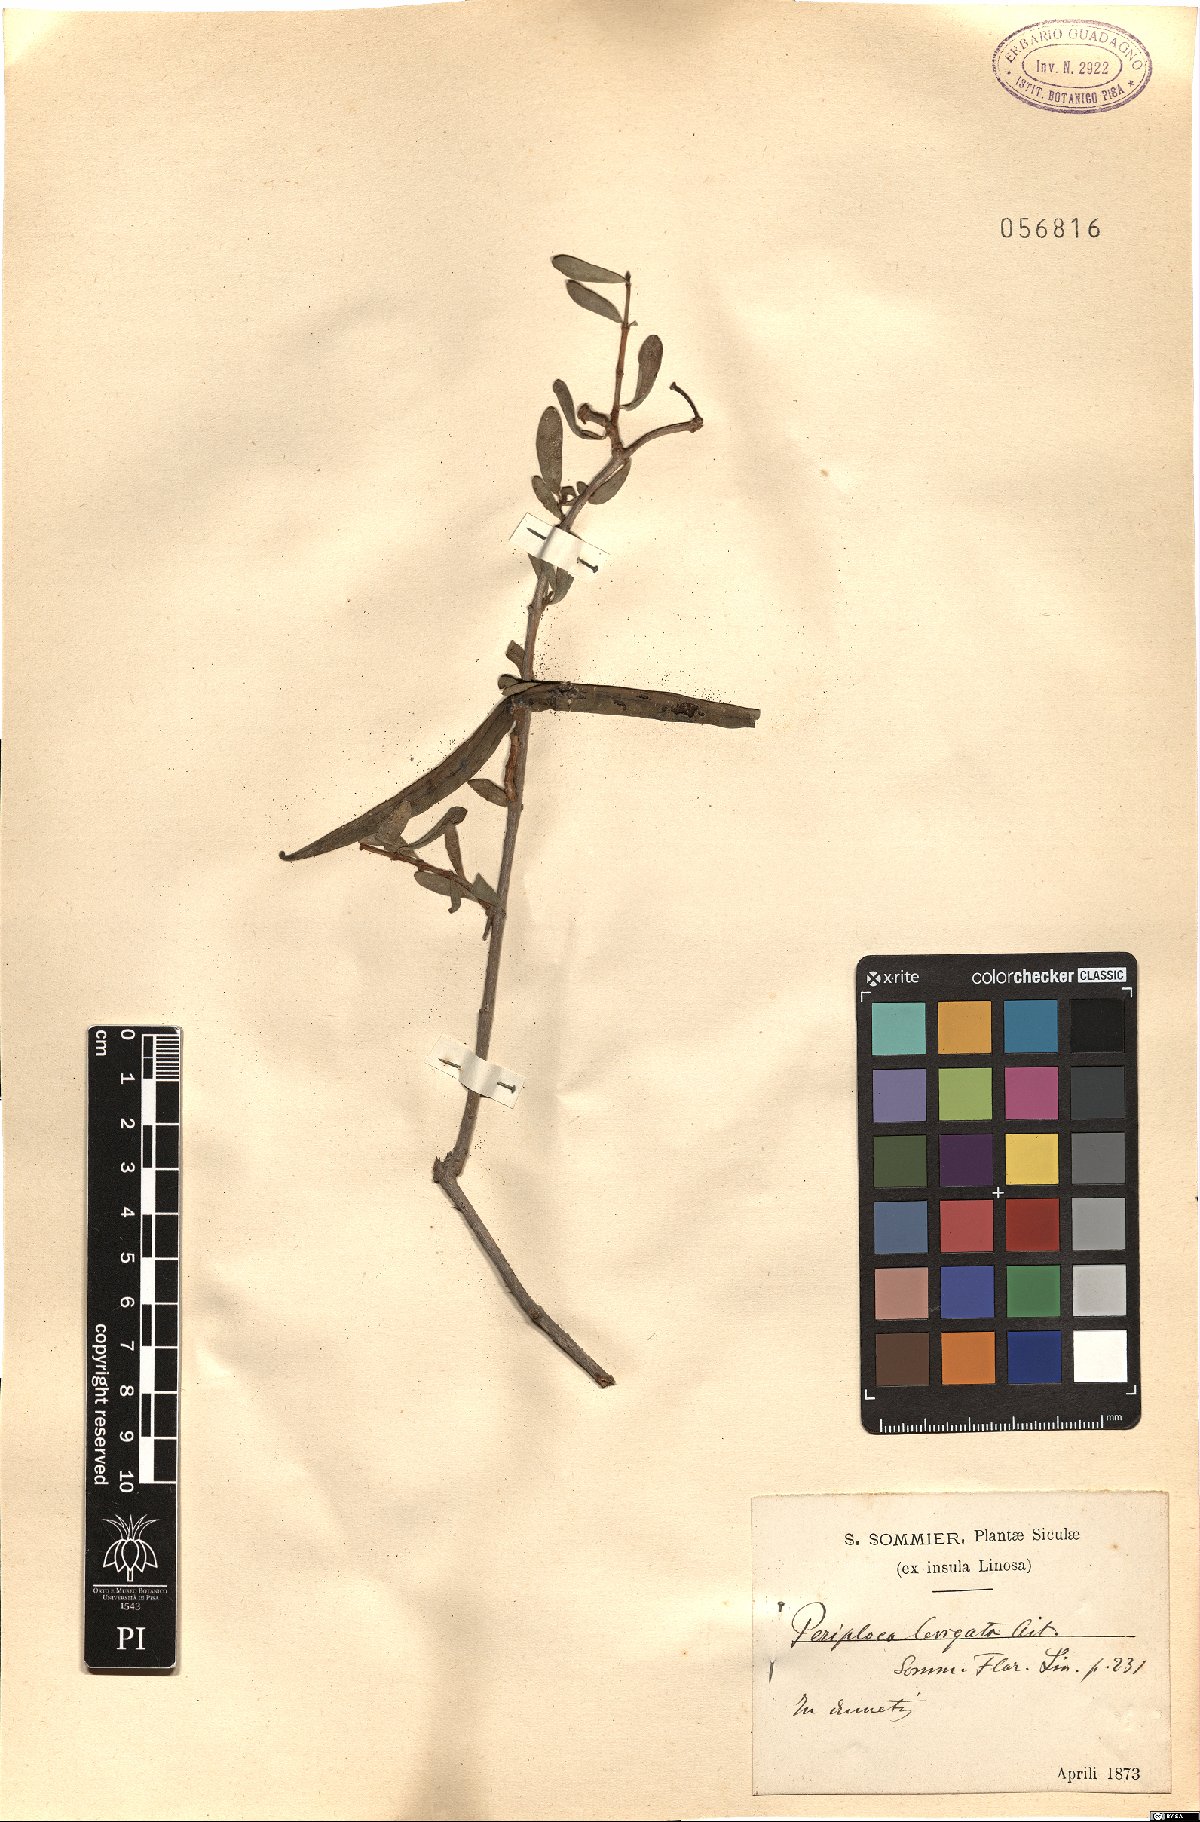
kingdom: Plantae
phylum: Tracheophyta
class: Magnoliopsida
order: Gentianales
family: Apocynaceae
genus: Periploca
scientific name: Periploca laevigata
